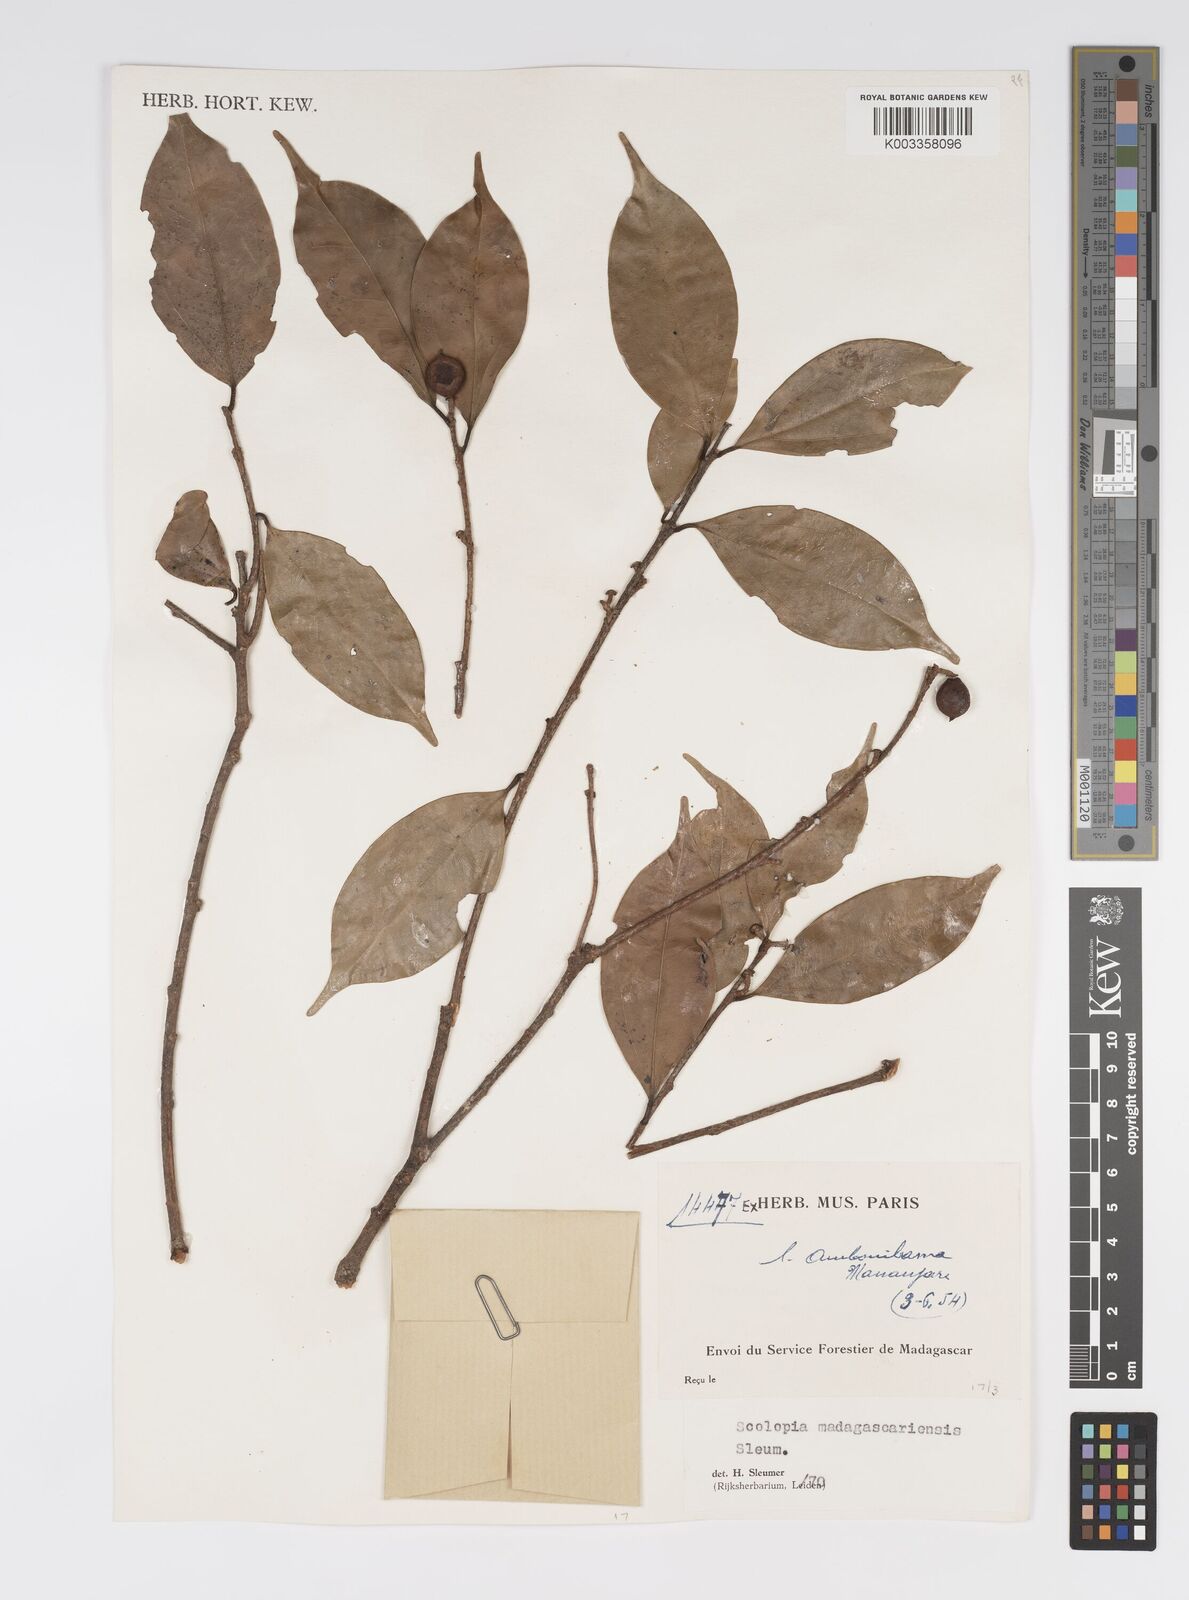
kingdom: Plantae
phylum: Tracheophyta
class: Magnoliopsida
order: Malpighiales
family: Salicaceae
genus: Scolopia
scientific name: Scolopia madagascariensis
